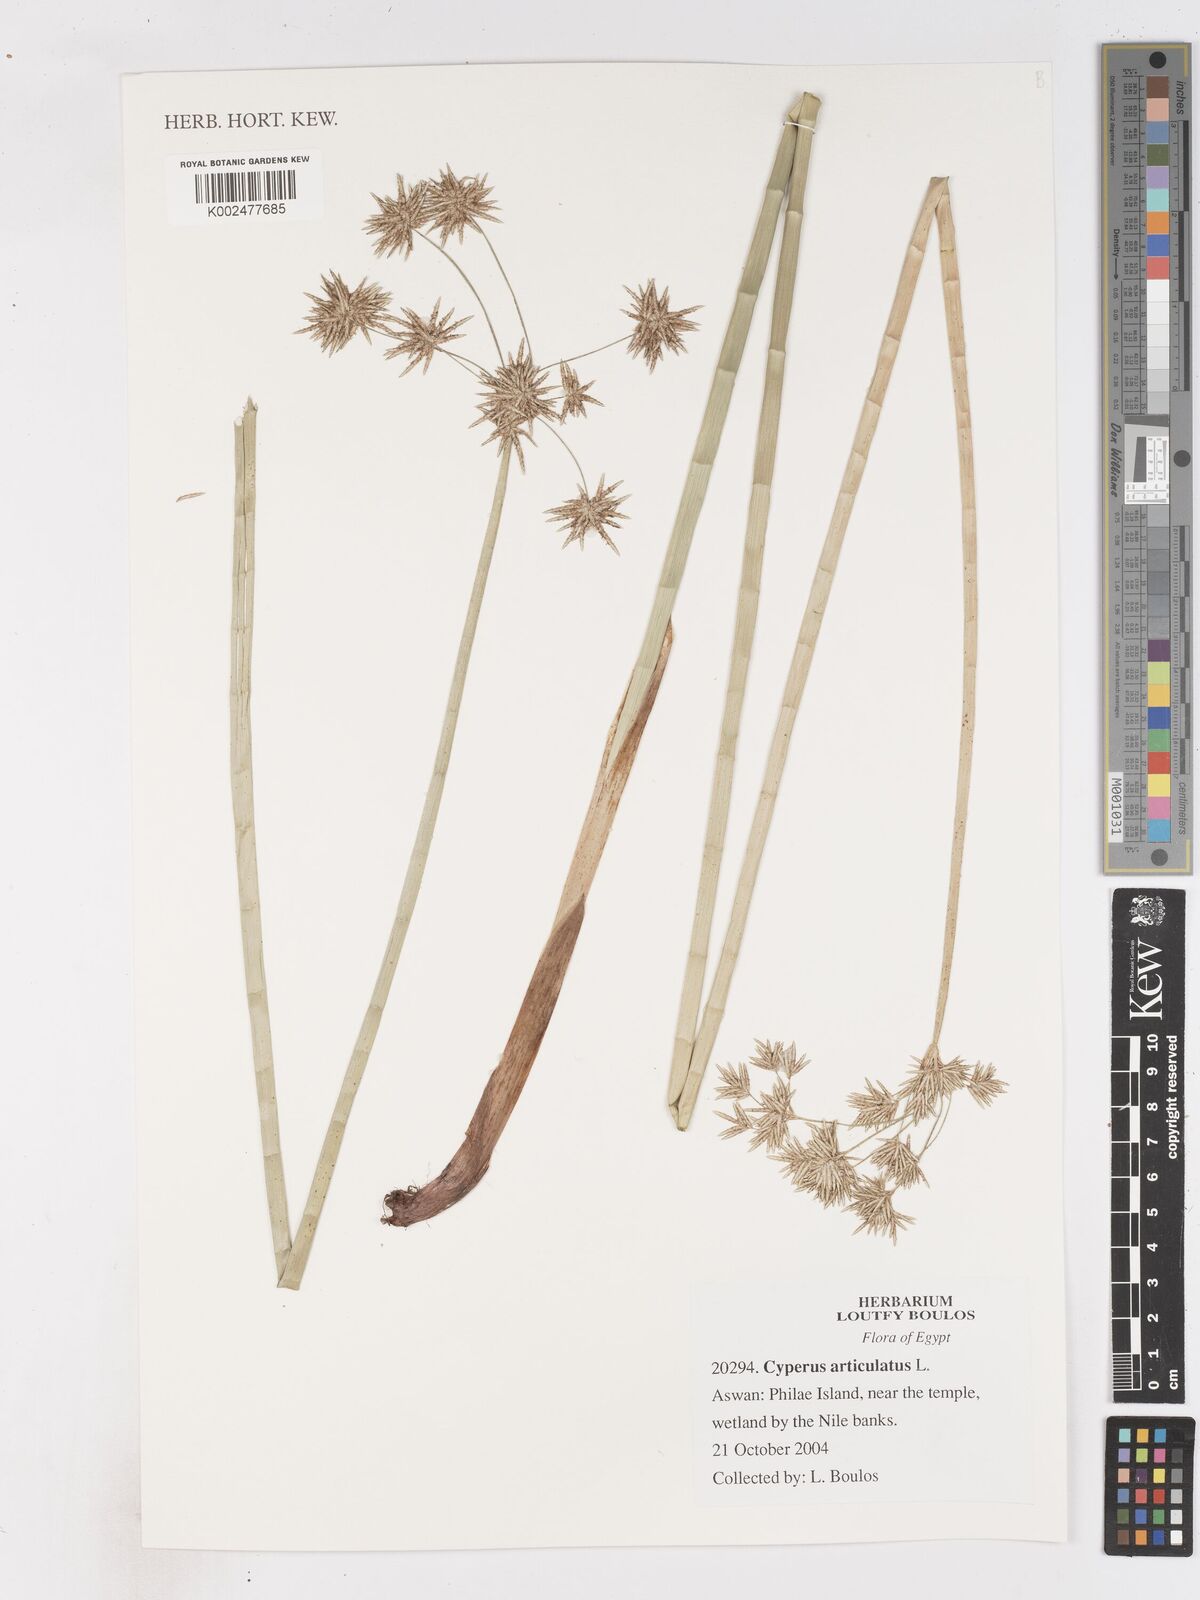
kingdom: Plantae
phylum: Tracheophyta
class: Liliopsida
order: Poales
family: Cyperaceae
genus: Cyperus
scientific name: Cyperus articulatus
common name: Jointed flatsedge
